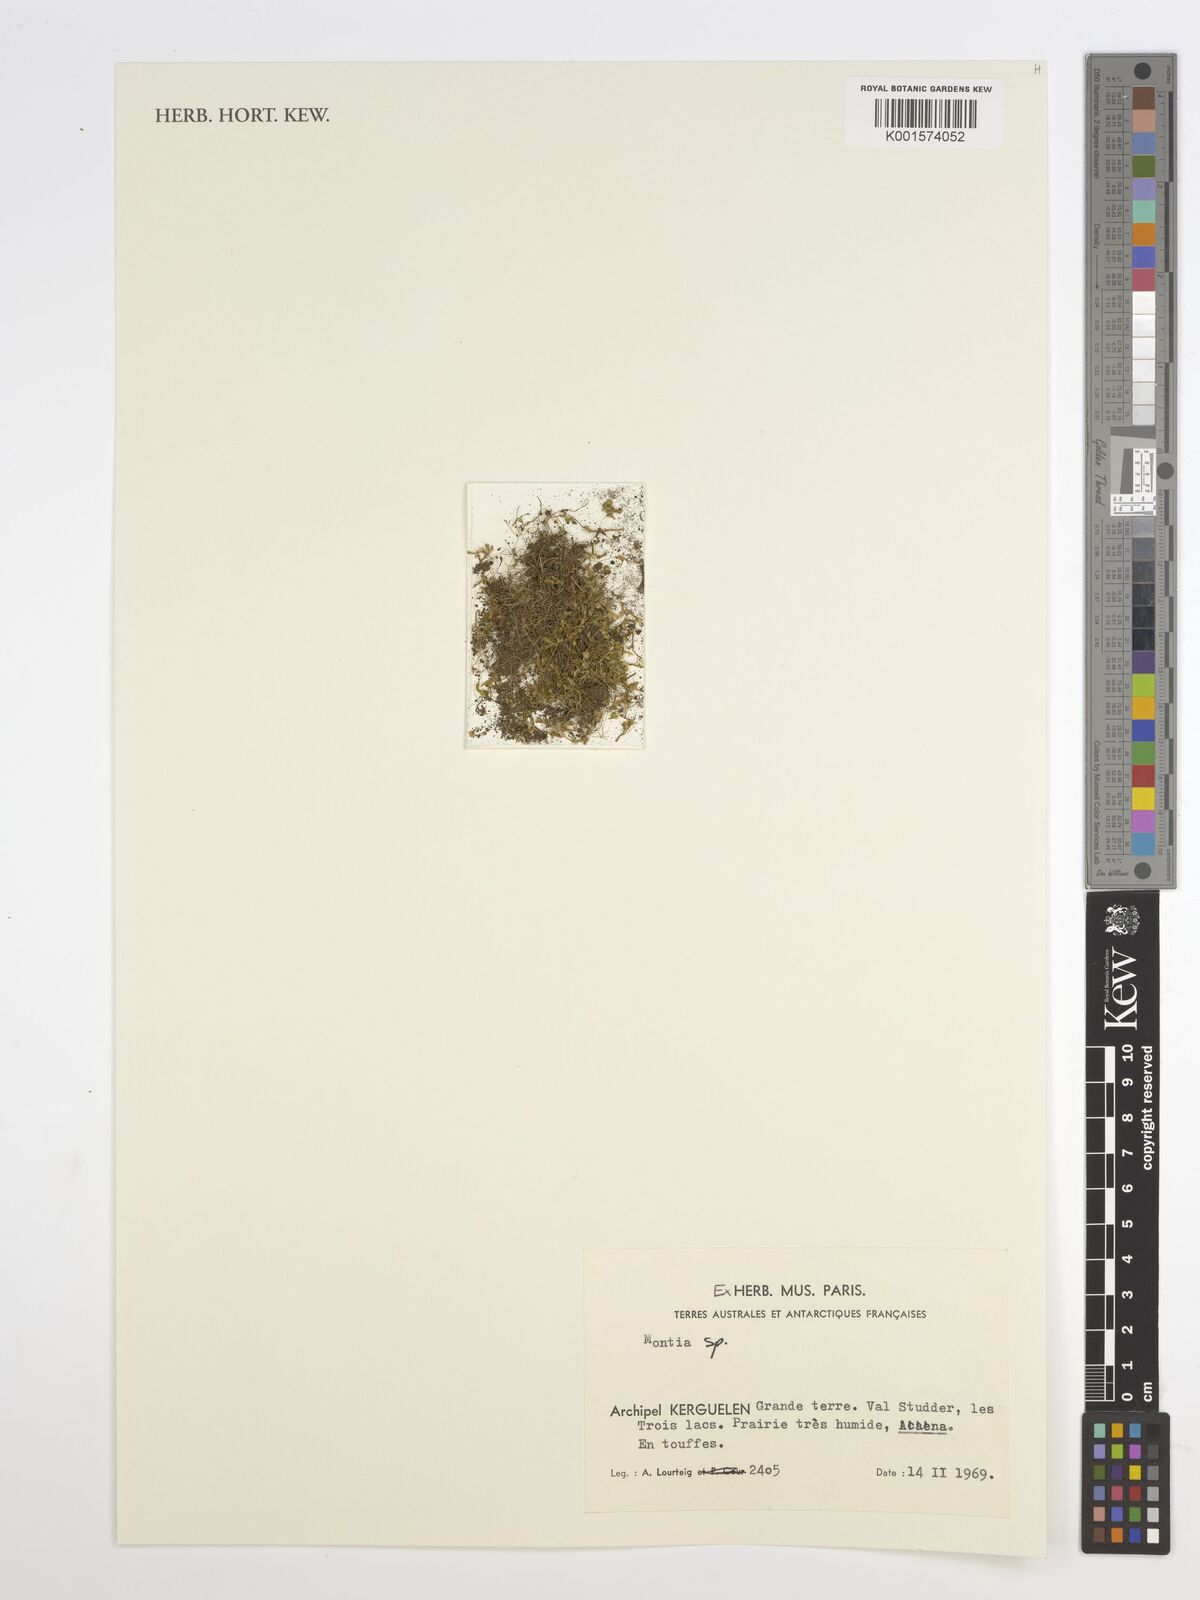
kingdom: Plantae
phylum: Tracheophyta
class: Magnoliopsida
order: Caryophyllales
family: Montiaceae
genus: Montia
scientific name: Montia
